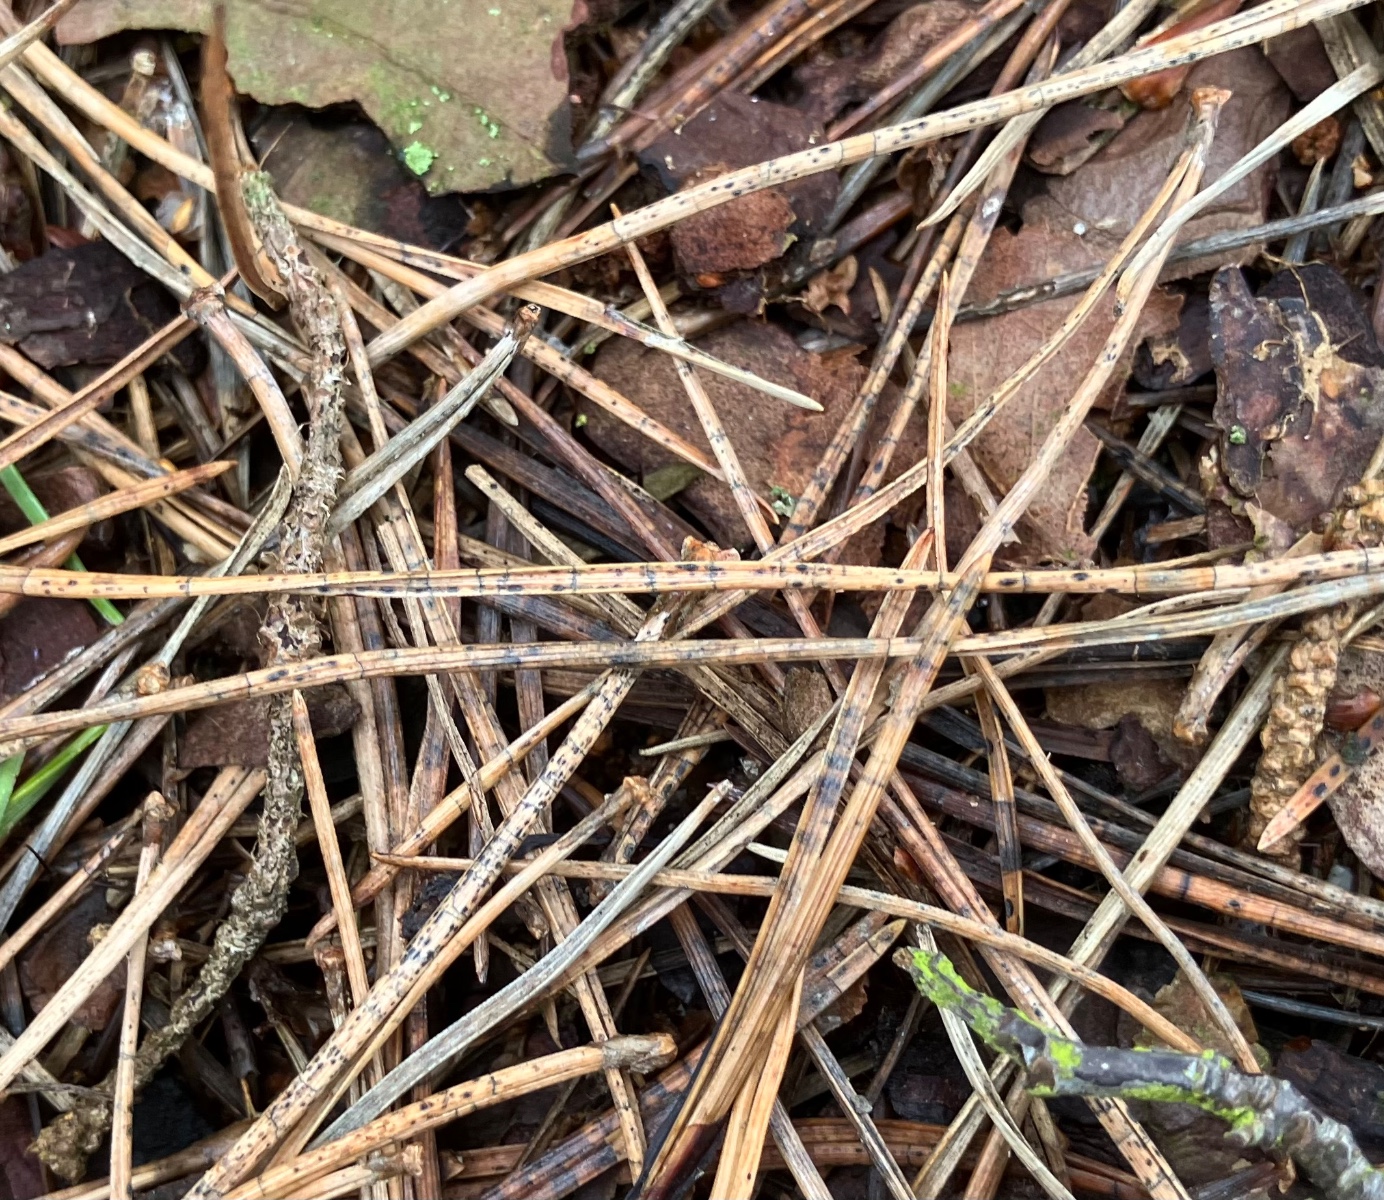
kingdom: Fungi
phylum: Ascomycota
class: Leotiomycetes
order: Rhytismatales
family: Rhytismataceae
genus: Lophodermium
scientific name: Lophodermium pinastri
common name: fyrre-fureplet
